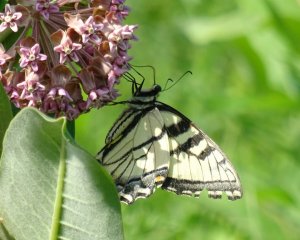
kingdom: Animalia
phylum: Arthropoda
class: Insecta
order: Lepidoptera
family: Papilionidae
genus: Pterourus
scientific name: Pterourus glaucus
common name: Eastern Tiger Swallowtail
